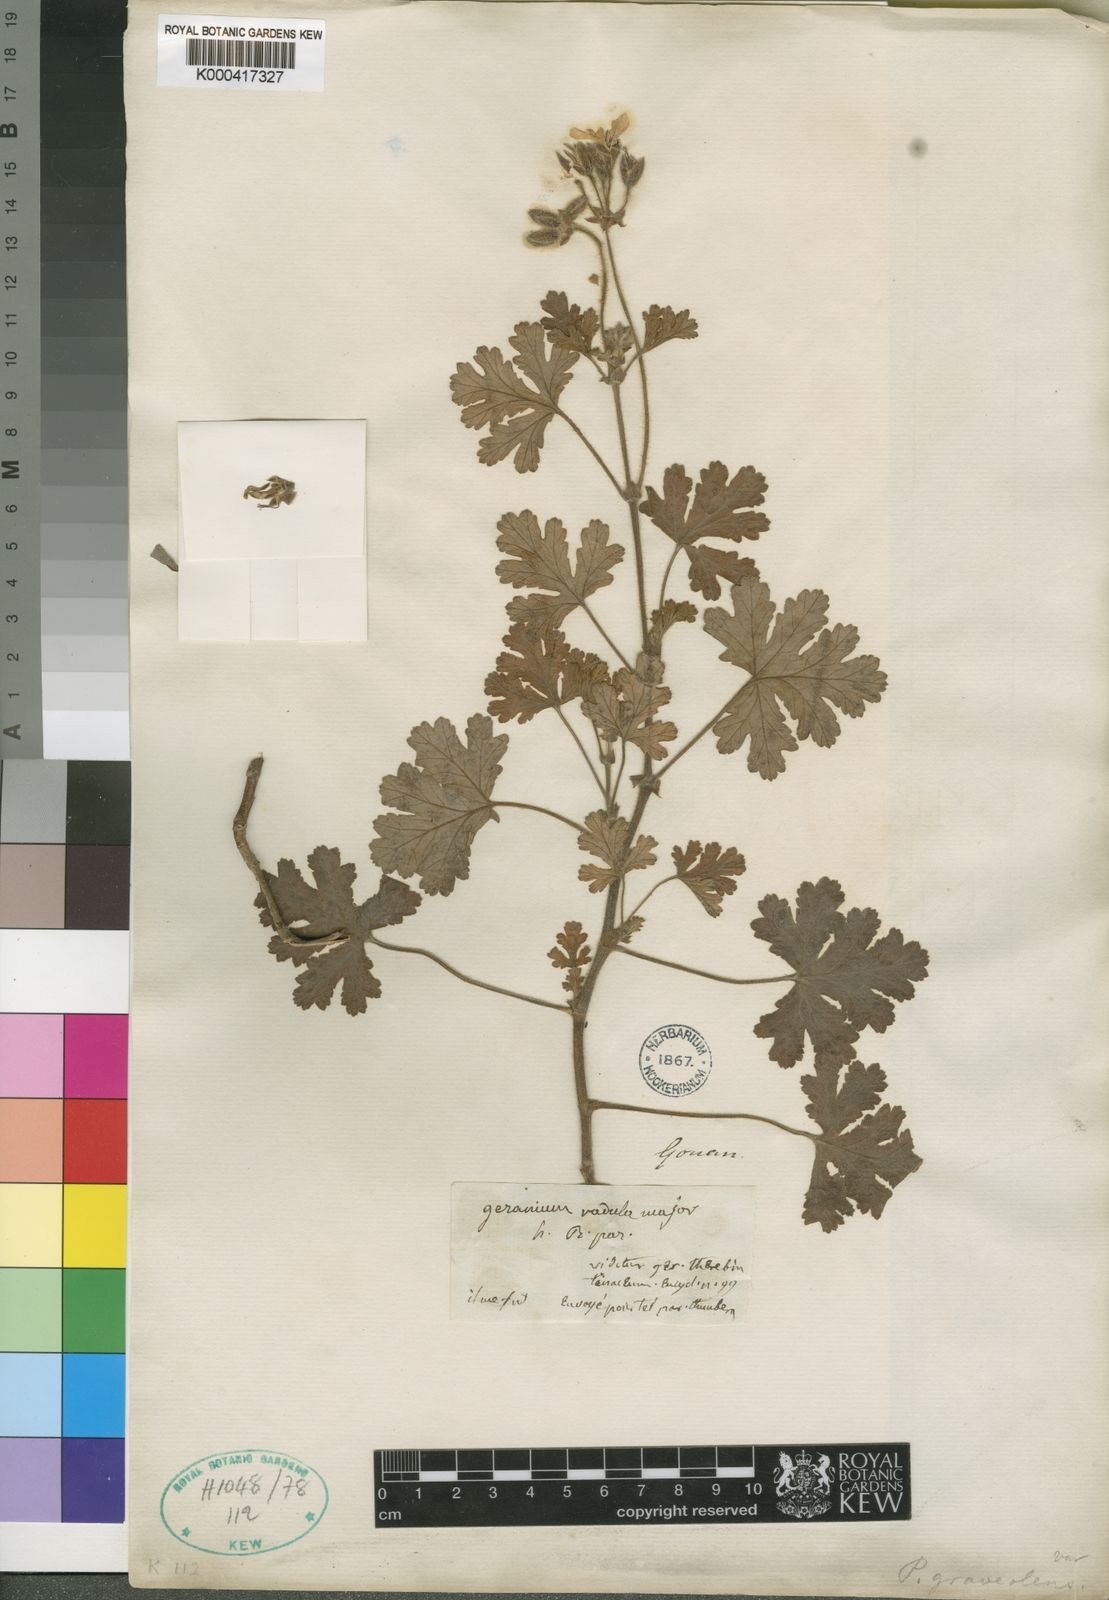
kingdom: Plantae
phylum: Tracheophyta
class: Magnoliopsida
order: Geraniales
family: Geraniaceae
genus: Pelargonium
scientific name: Pelargonium
